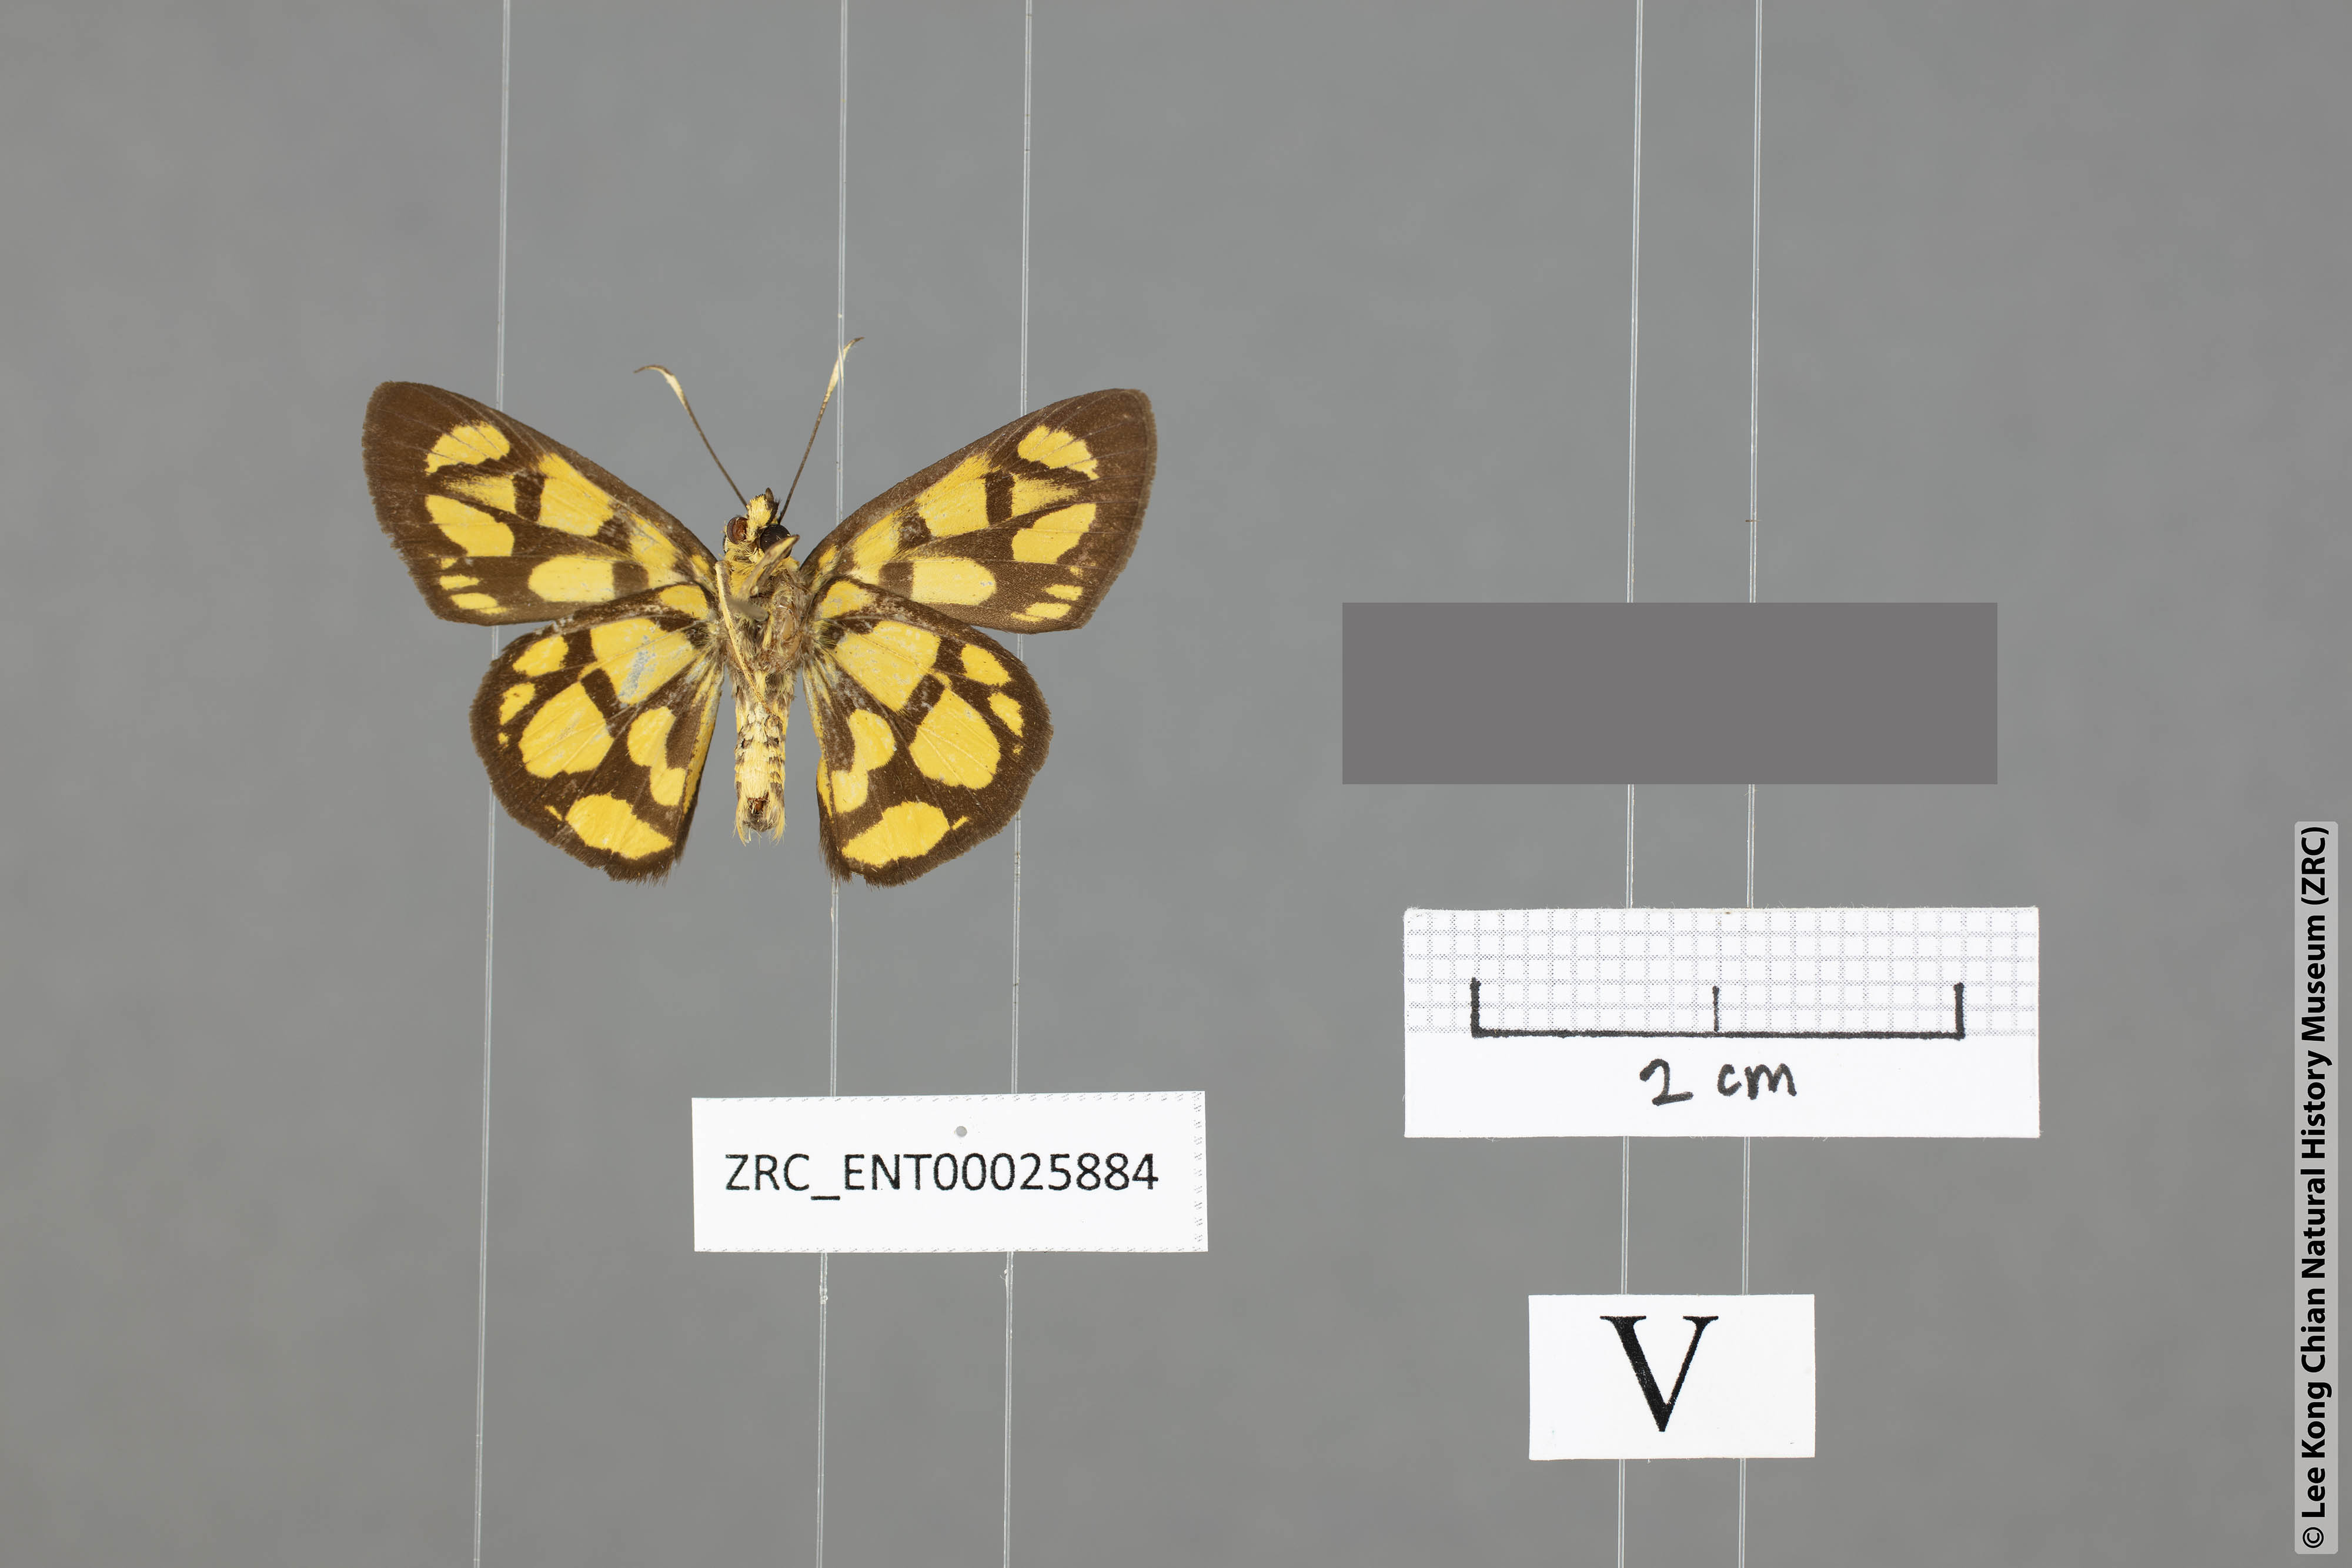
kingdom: Animalia
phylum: Arthropoda
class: Insecta
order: Lepidoptera
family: Hesperiidae
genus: Odina
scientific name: Odina hieroglyphica
